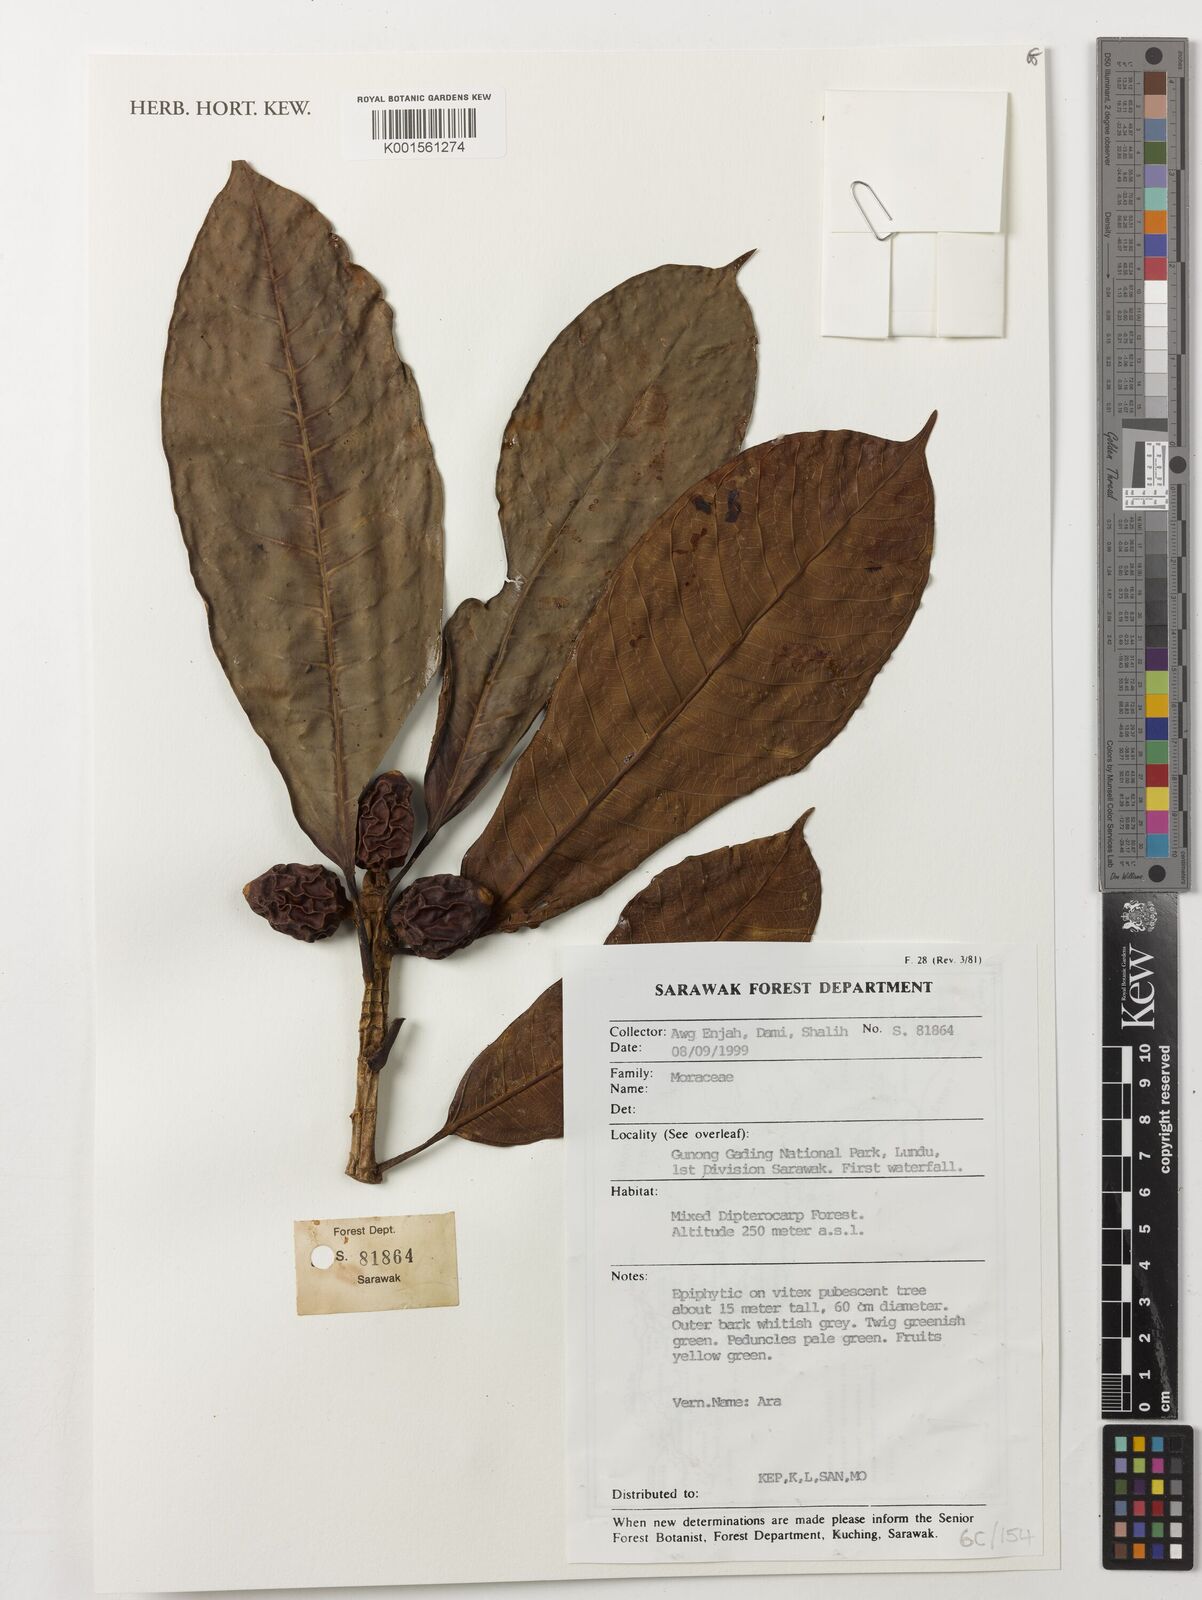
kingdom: Plantae
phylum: Tracheophyta
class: Magnoliopsida
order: Rosales
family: Moraceae
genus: Ficus
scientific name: Ficus
